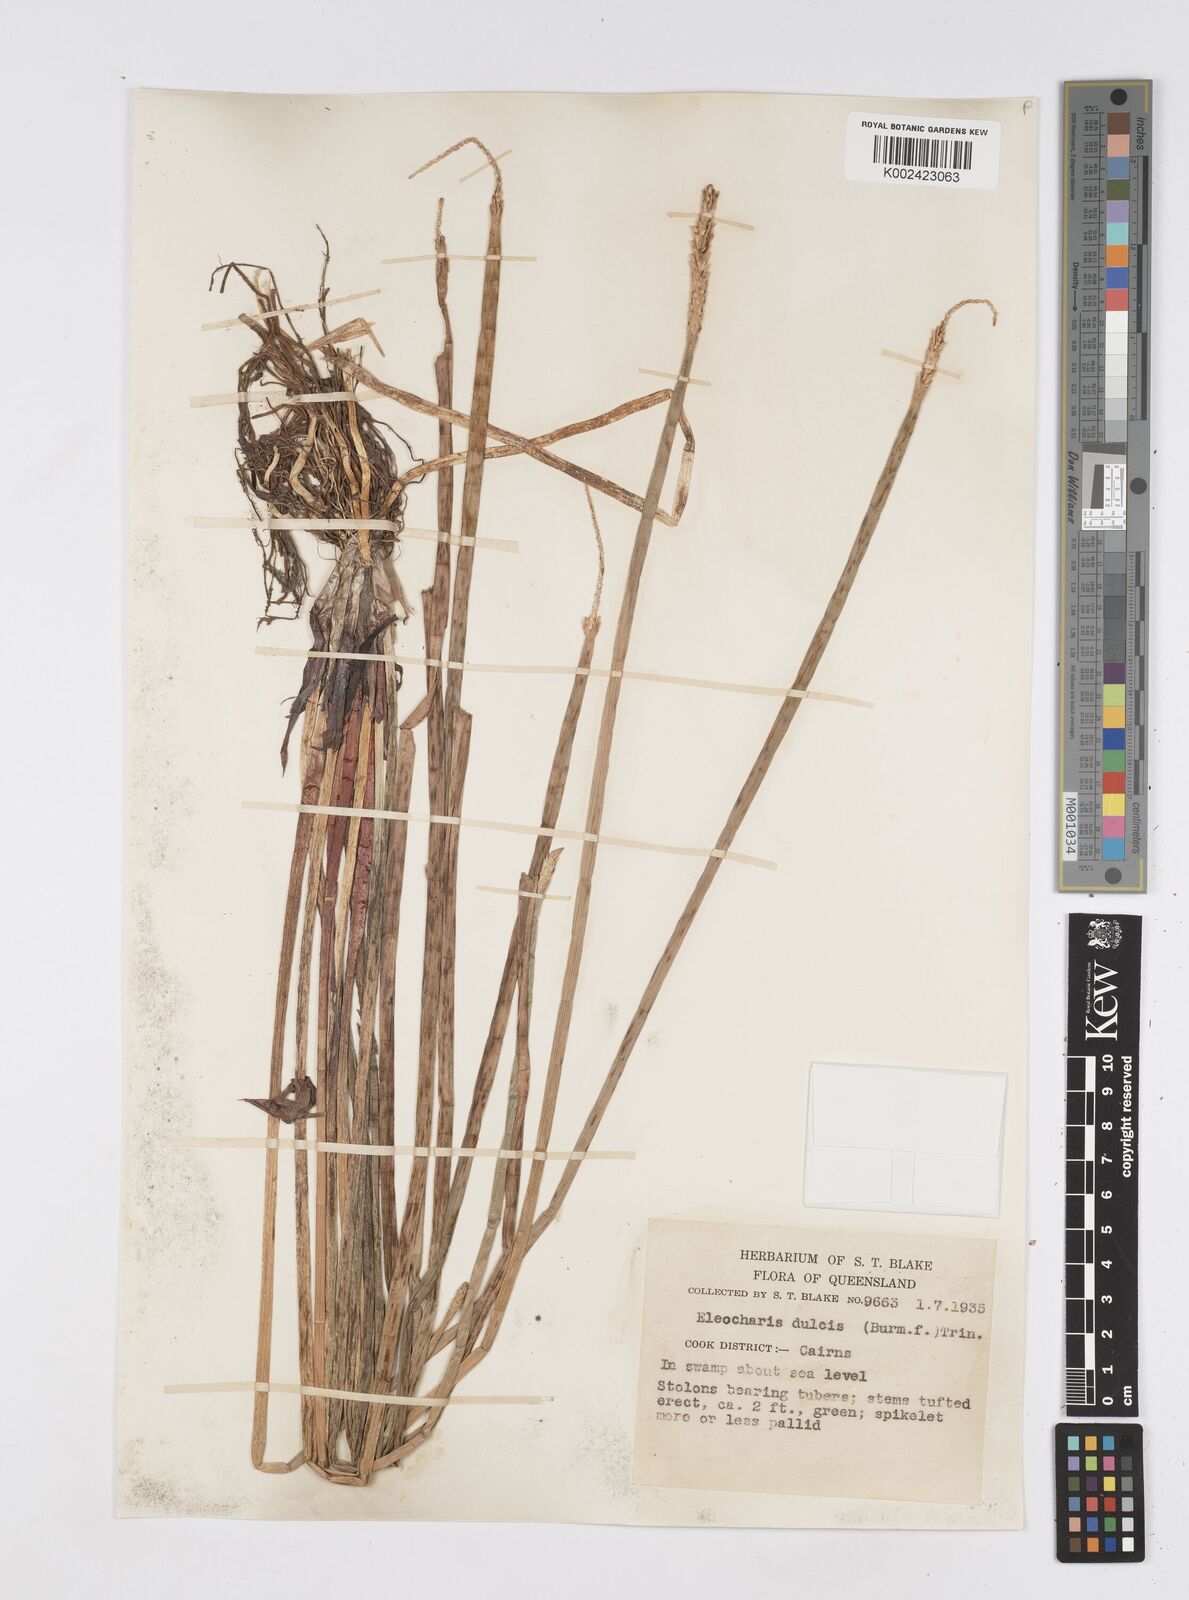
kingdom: Plantae
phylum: Tracheophyta
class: Liliopsida
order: Poales
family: Cyperaceae
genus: Eleocharis
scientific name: Eleocharis dulcis
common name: Chinese water chestnut
